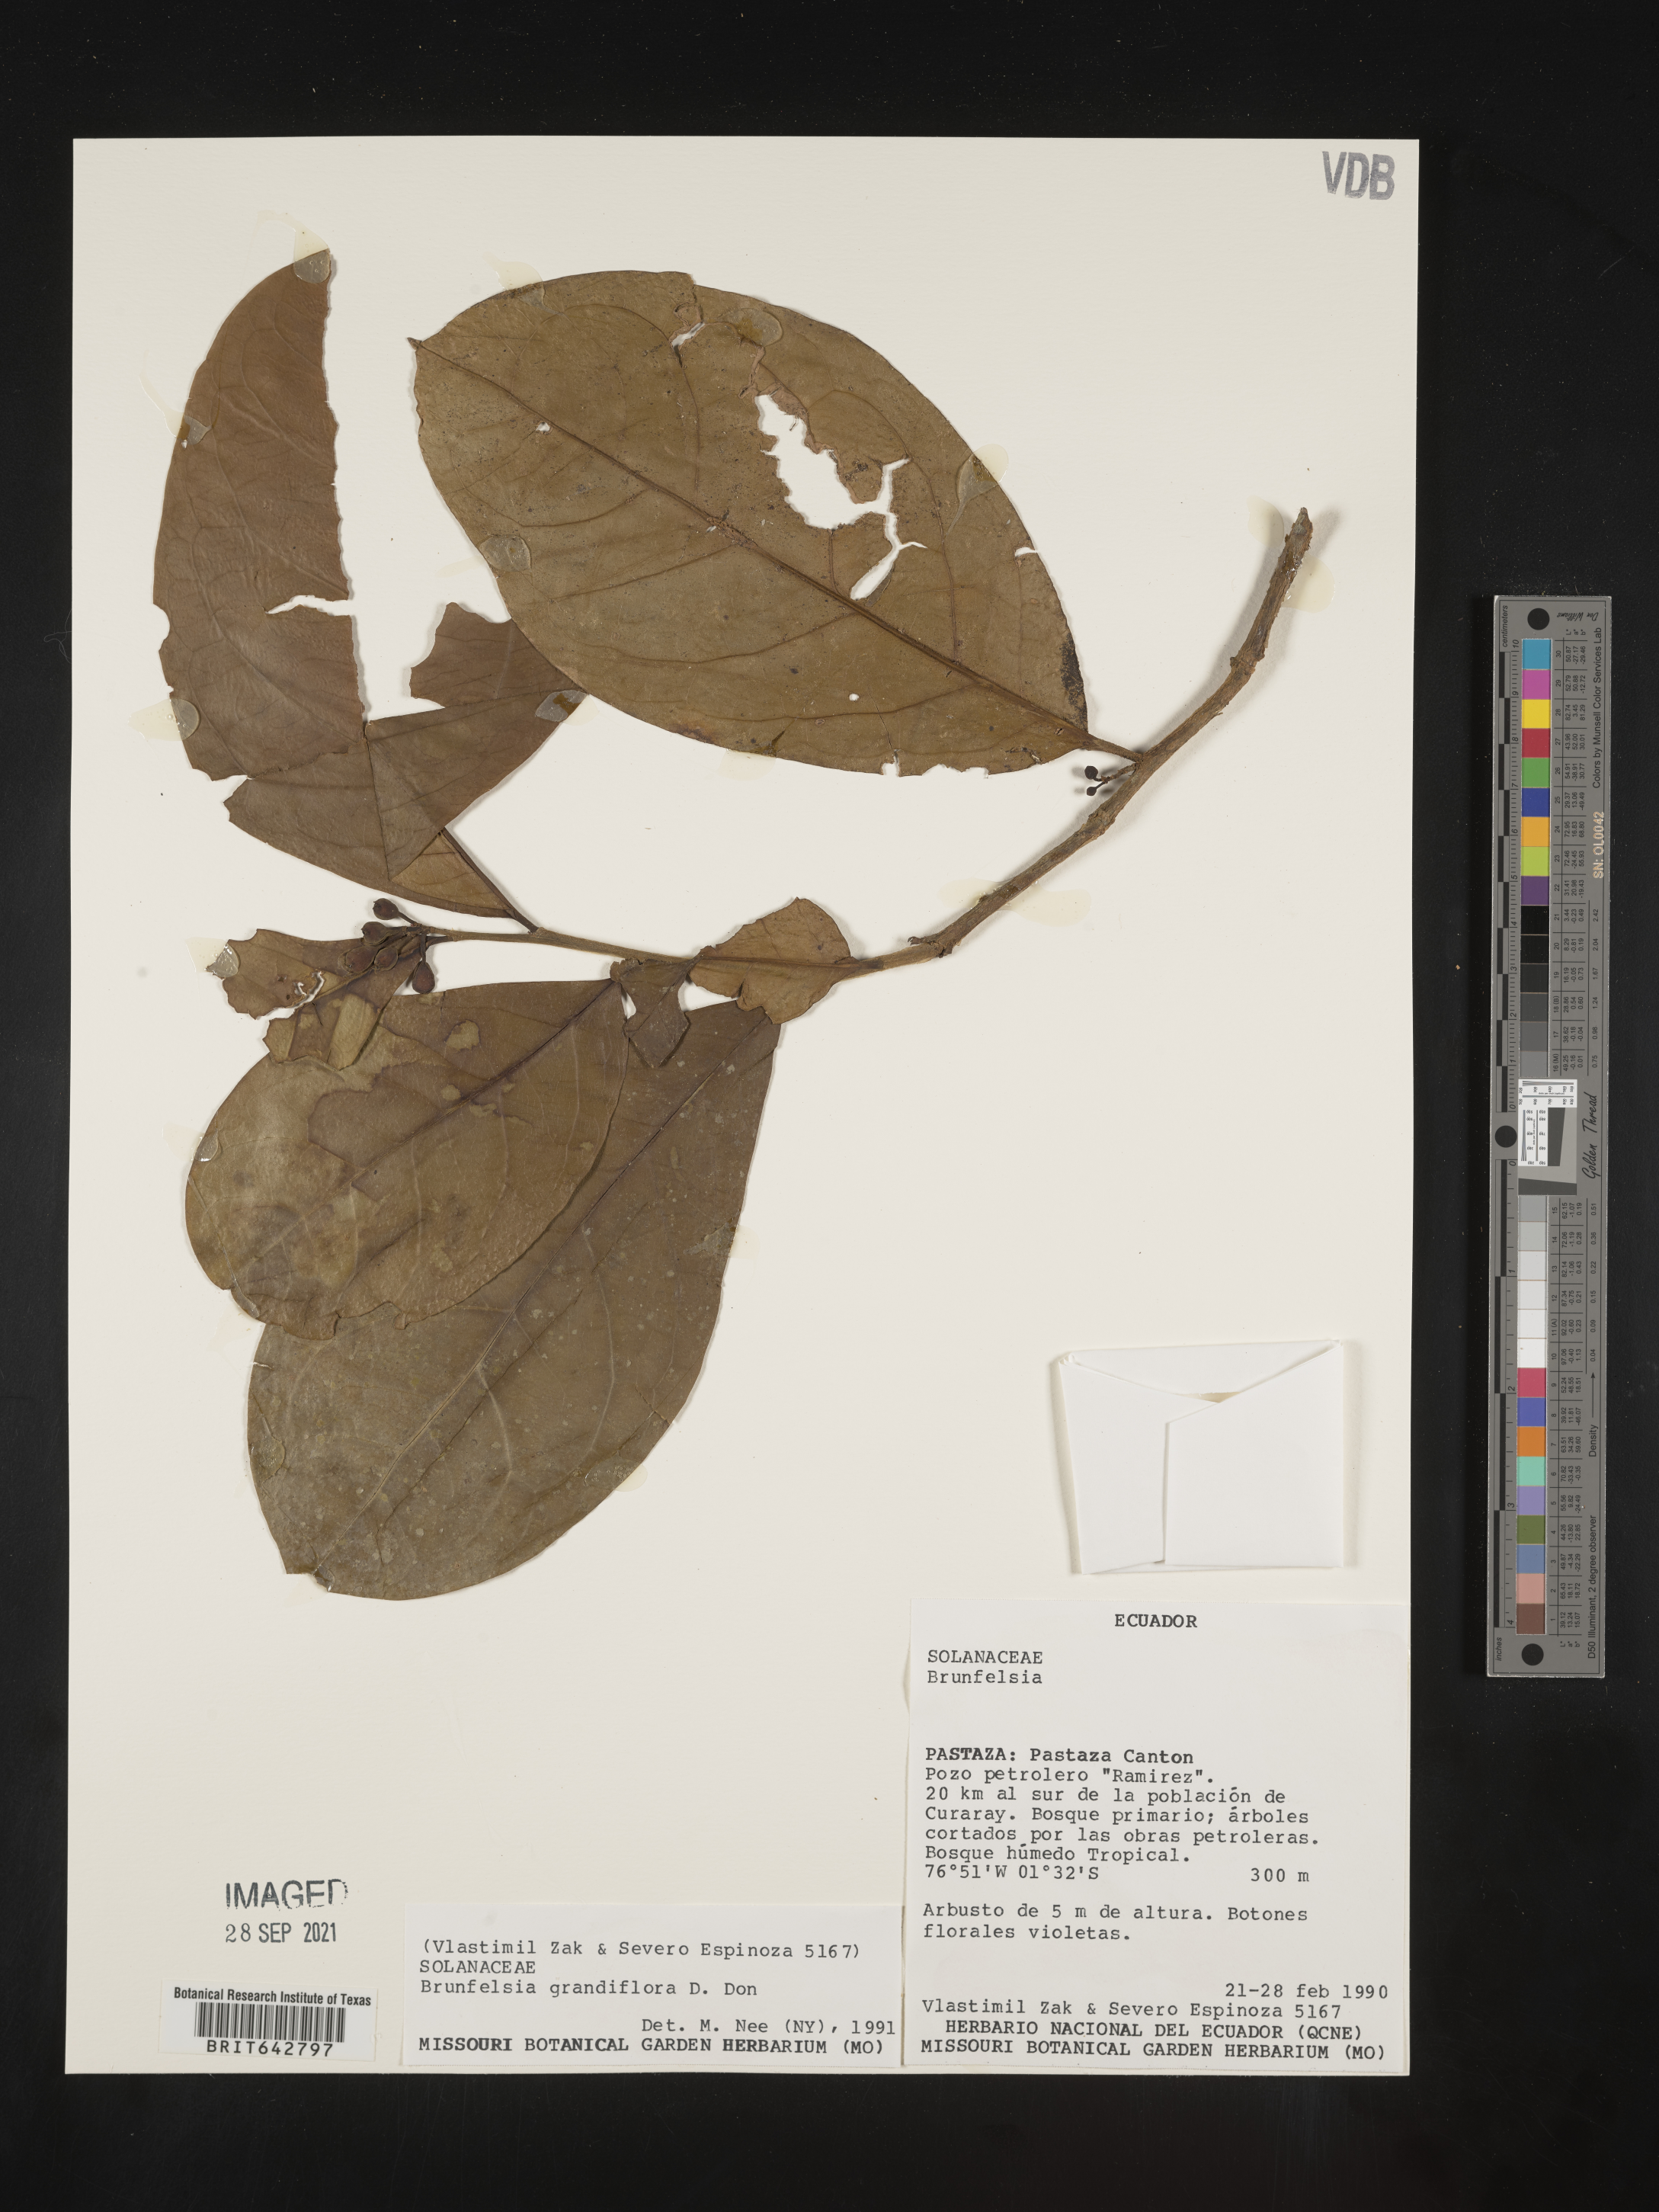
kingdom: Plantae
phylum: Tracheophyta
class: Magnoliopsida
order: Solanales
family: Solanaceae
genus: Brunfelsia
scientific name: Brunfelsia
